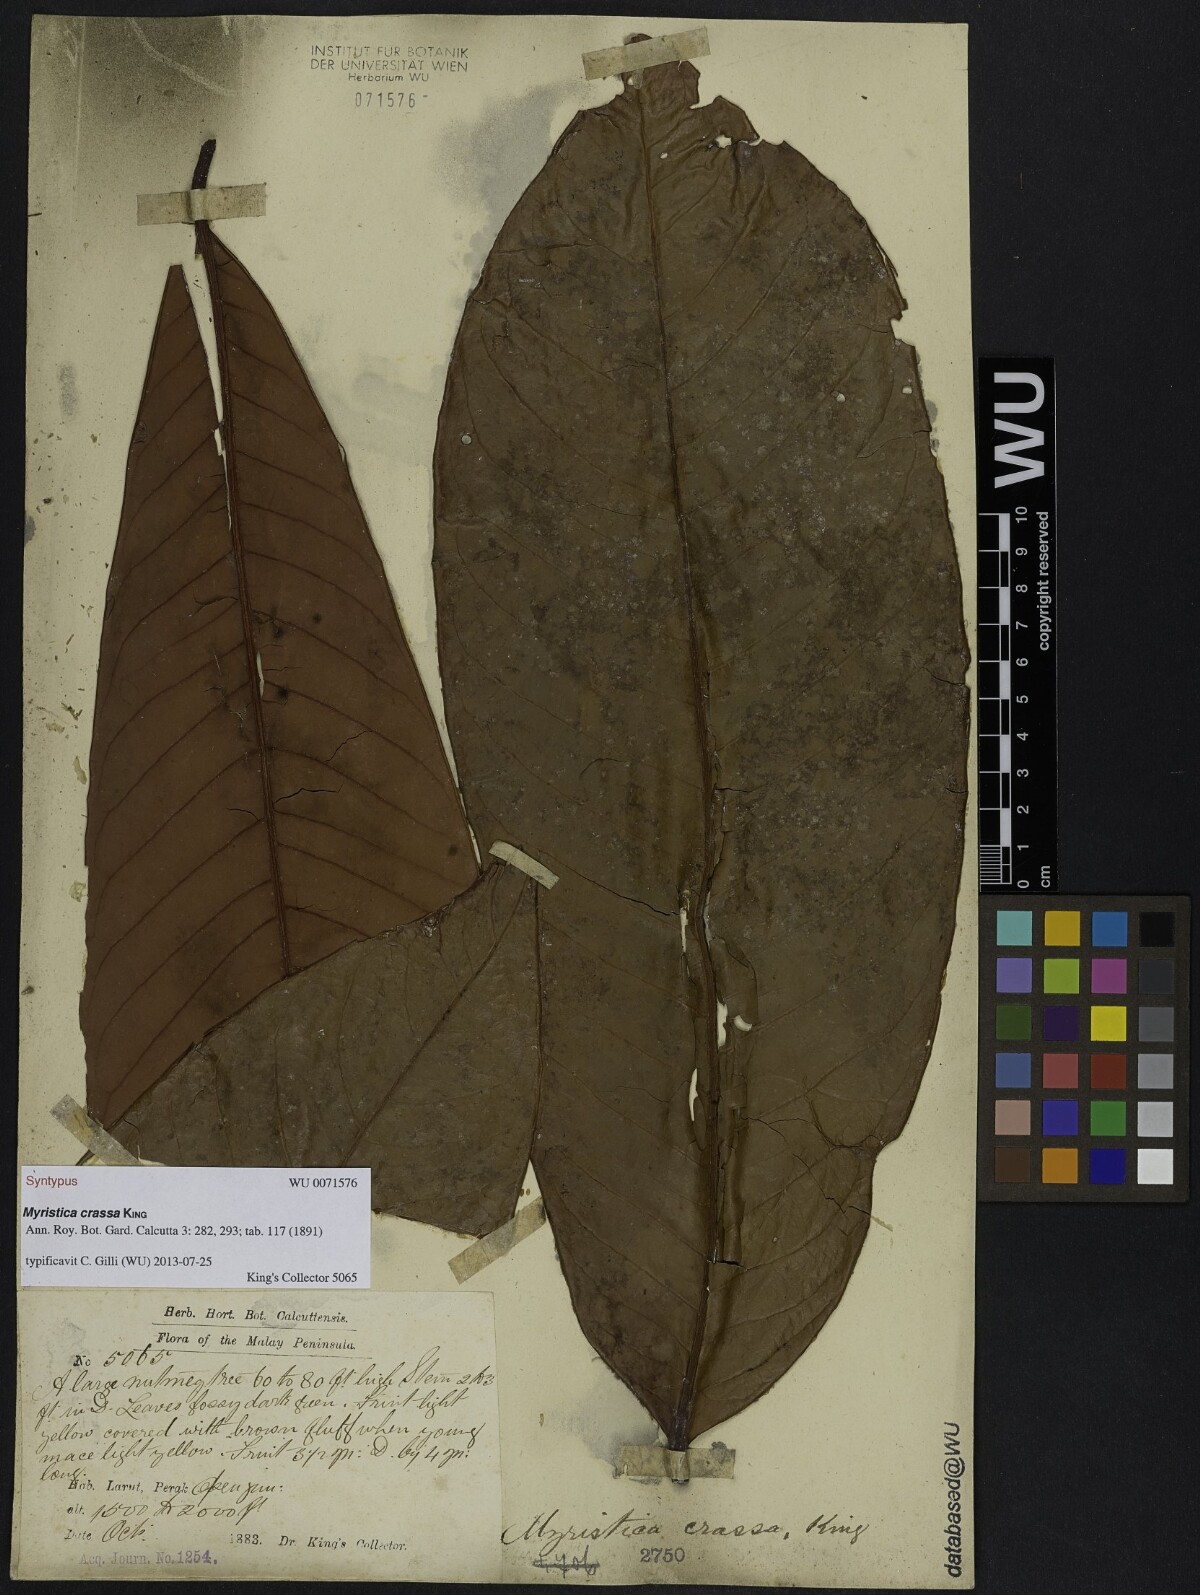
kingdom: Plantae
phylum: Tracheophyta
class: Magnoliopsida
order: Magnoliales
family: Myristicaceae
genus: Myristica
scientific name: Myristica crassa
